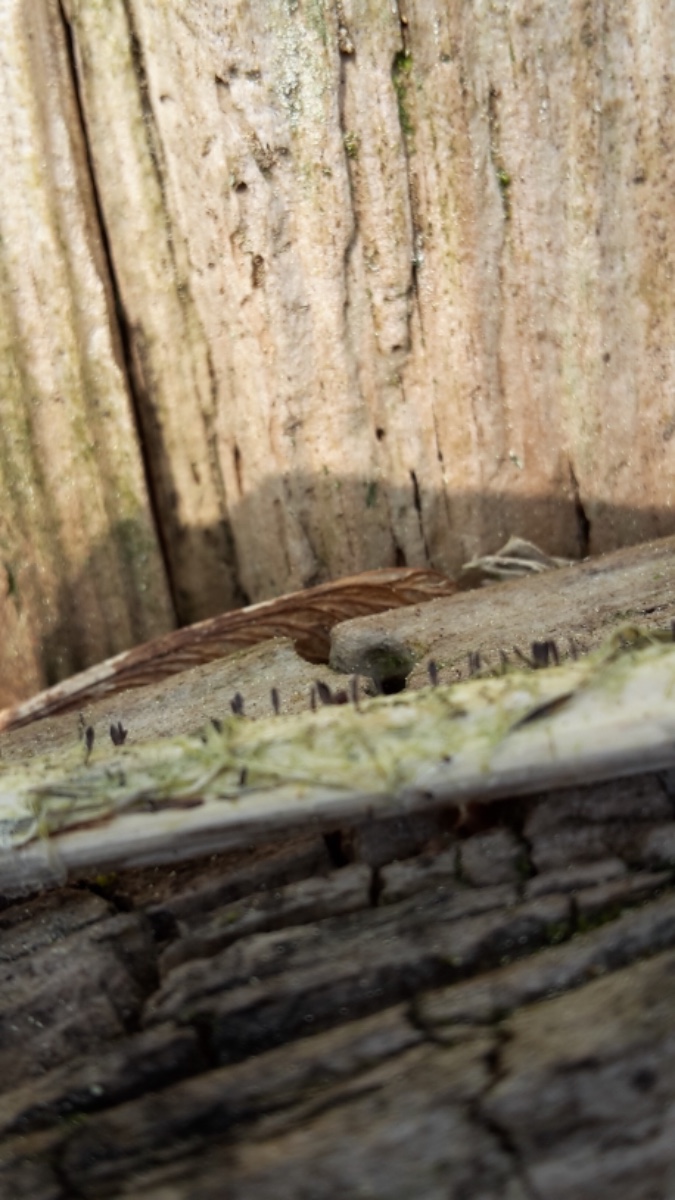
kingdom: Fungi
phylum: Ascomycota
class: Dothideomycetes
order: Acrospermales
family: Acrospermaceae
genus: Acrospermum
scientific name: Acrospermum compressum
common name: nælde-stængeltunge
